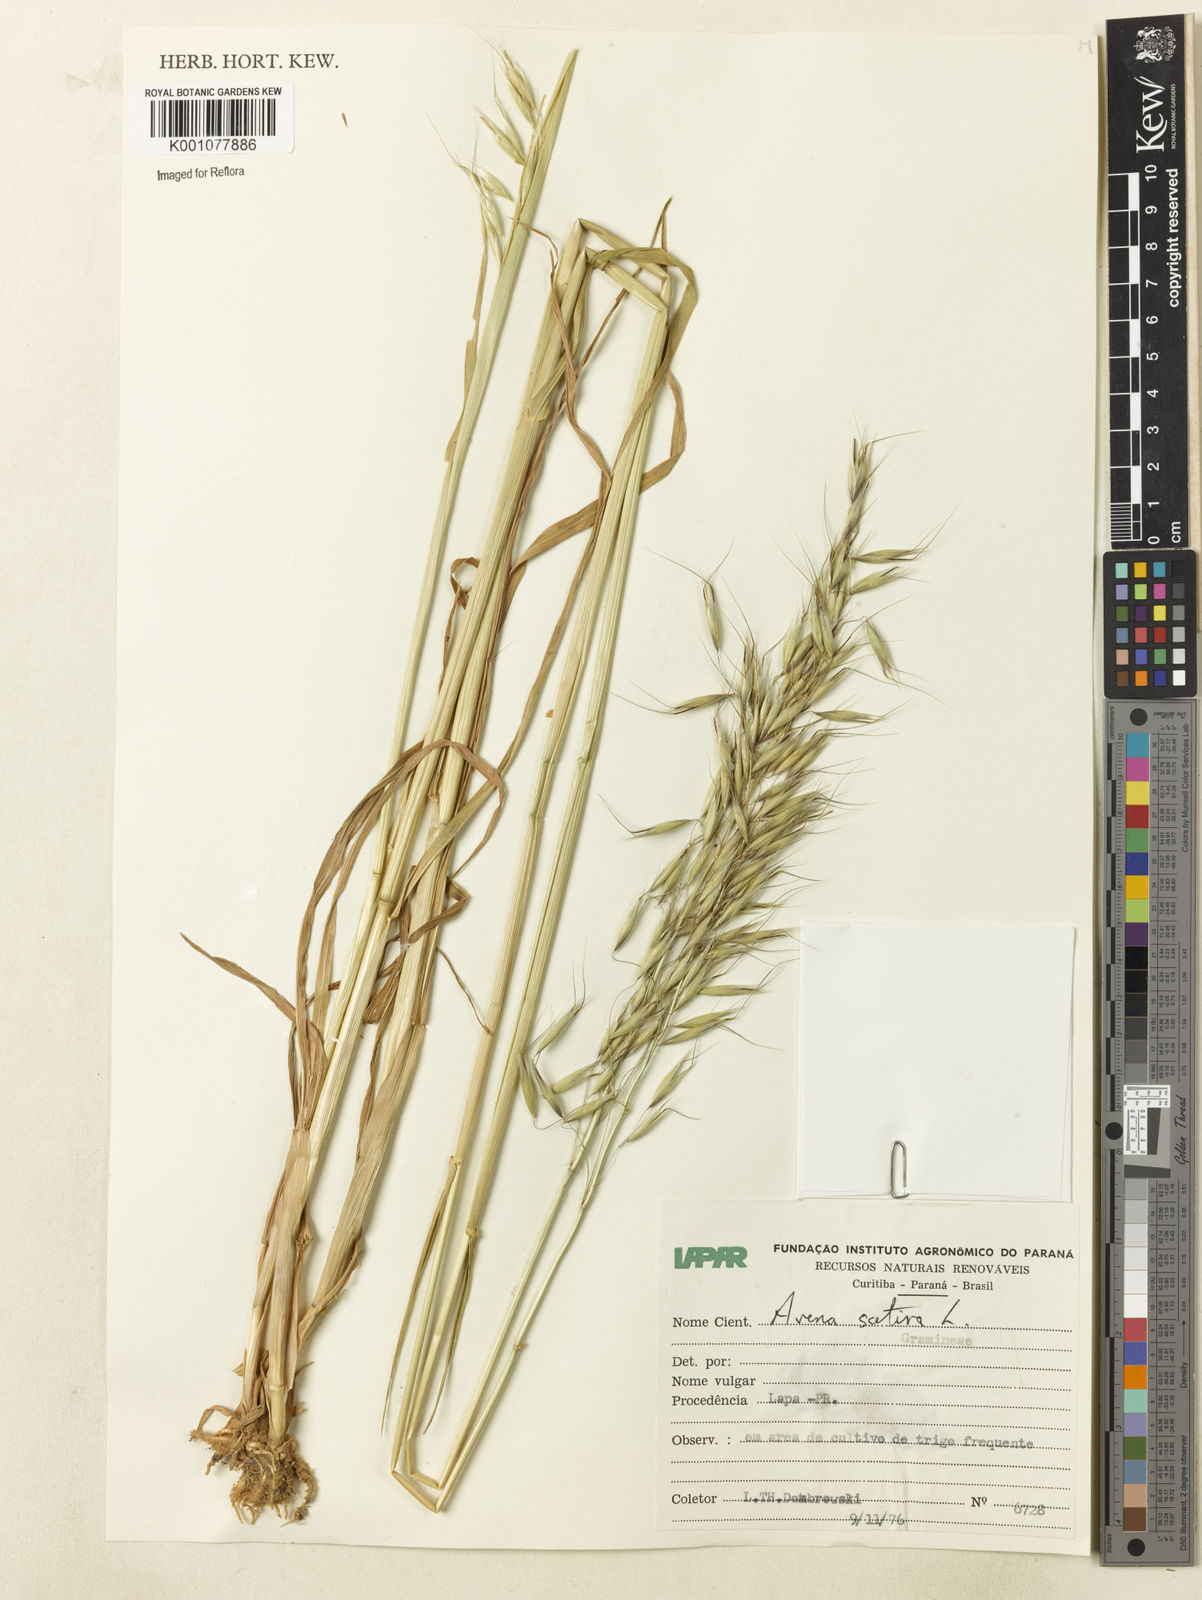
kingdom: Plantae
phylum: Tracheophyta
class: Liliopsida
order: Poales
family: Poaceae
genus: Avena
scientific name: Avena sativa
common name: Oat
